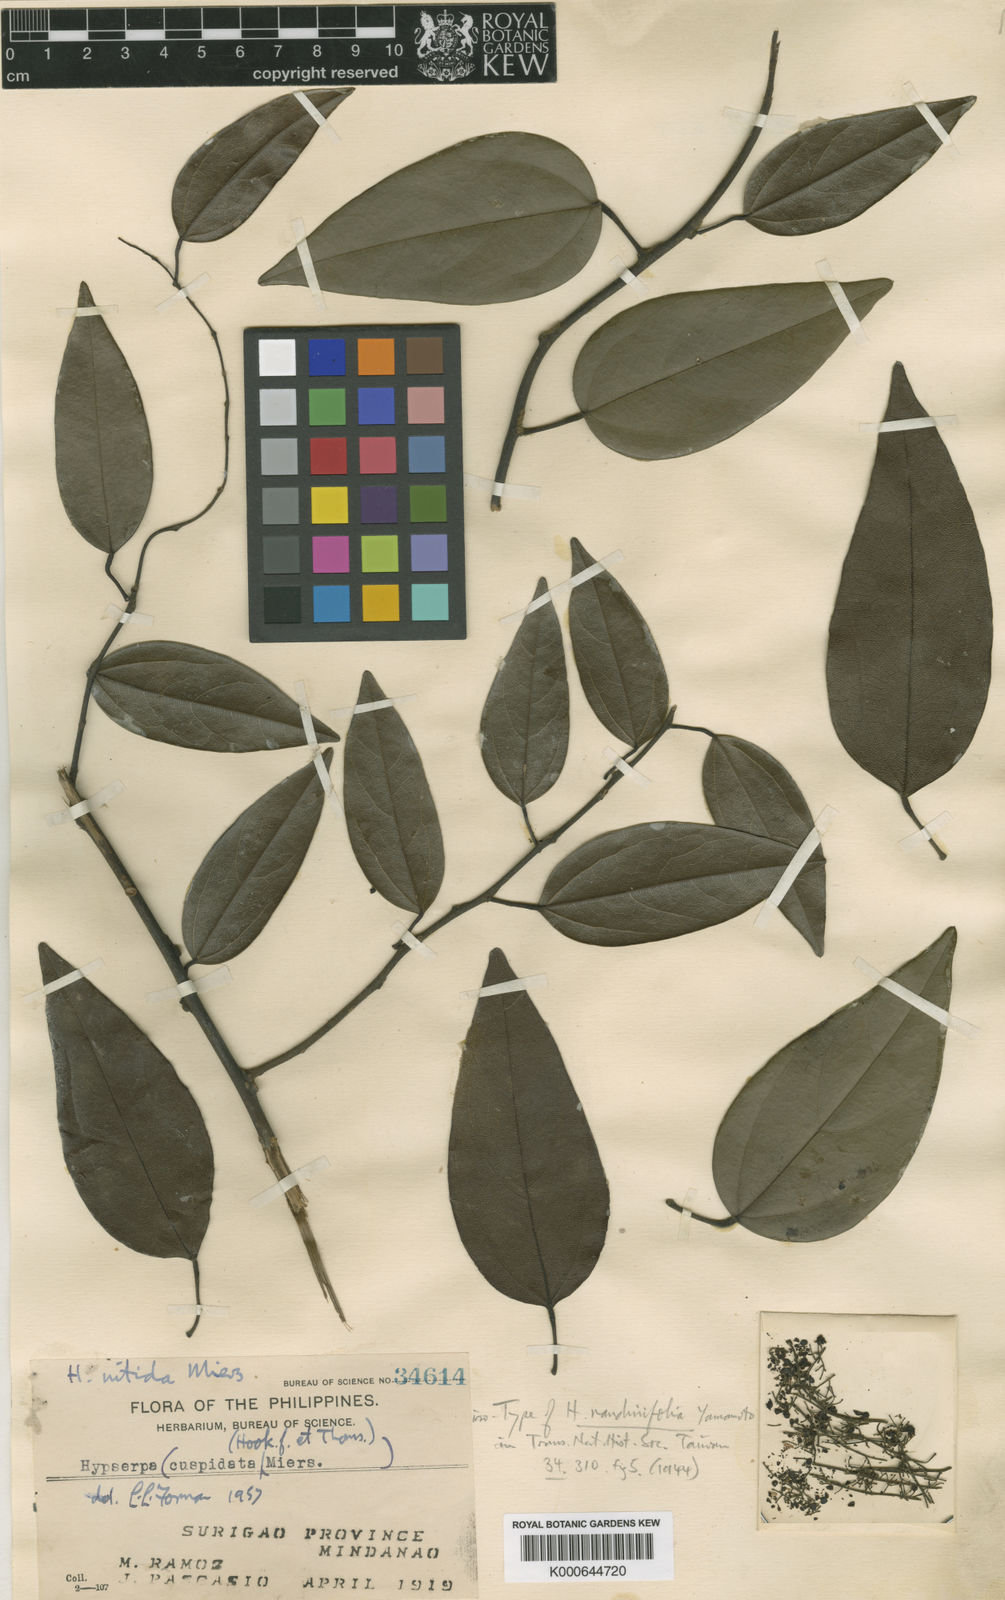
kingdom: Plantae
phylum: Tracheophyta
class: Magnoliopsida
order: Ranunculales
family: Menispermaceae
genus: Hypserpa
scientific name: Hypserpa
